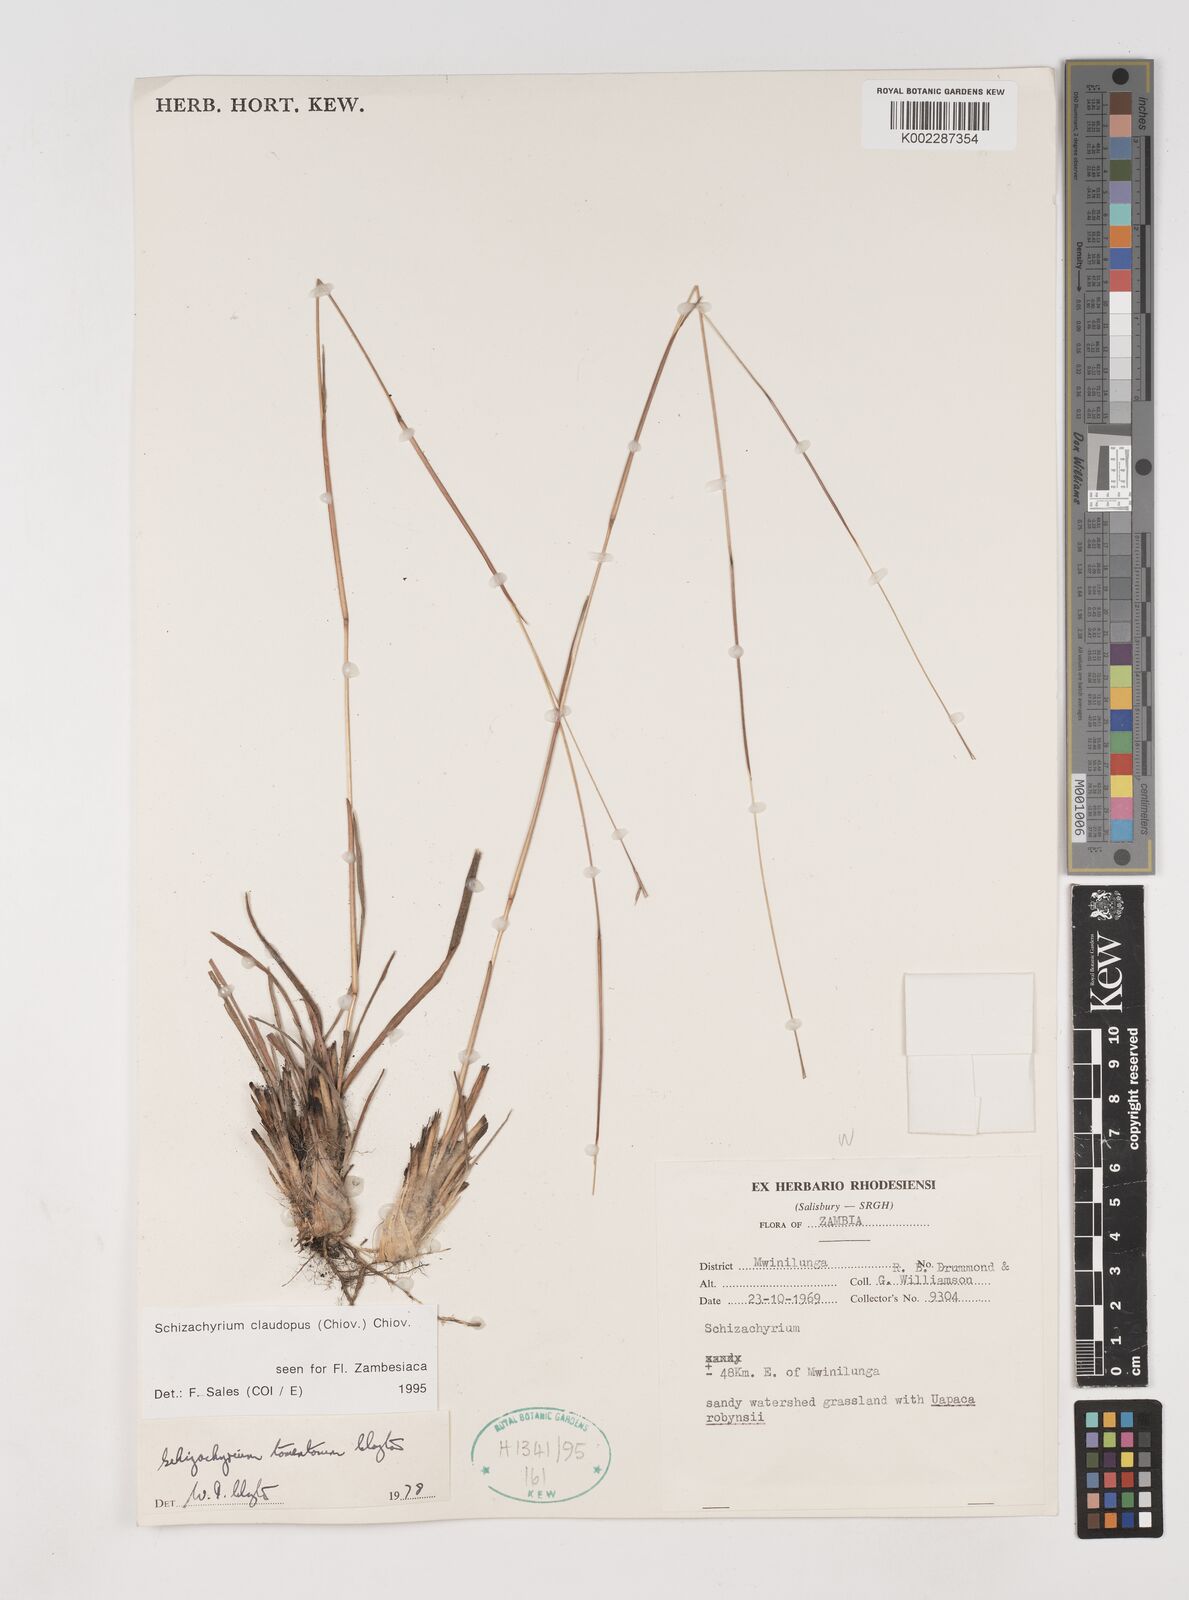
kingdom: Plantae
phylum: Tracheophyta
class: Liliopsida
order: Poales
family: Poaceae
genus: Schizachyrium
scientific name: Schizachyrium claudopus
